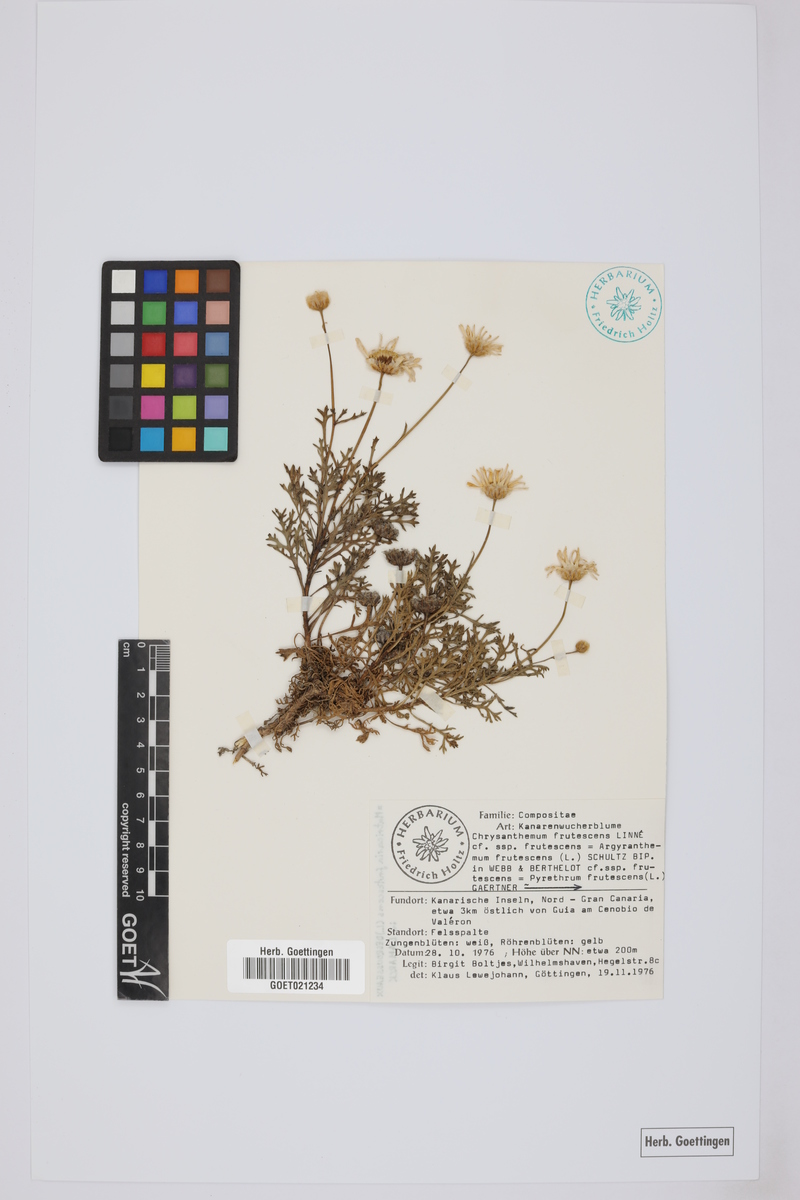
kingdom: Plantae
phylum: Tracheophyta
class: Magnoliopsida
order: Asterales
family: Asteraceae
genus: Argyranthemum
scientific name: Argyranthemum frutescens
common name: Paris daisy
